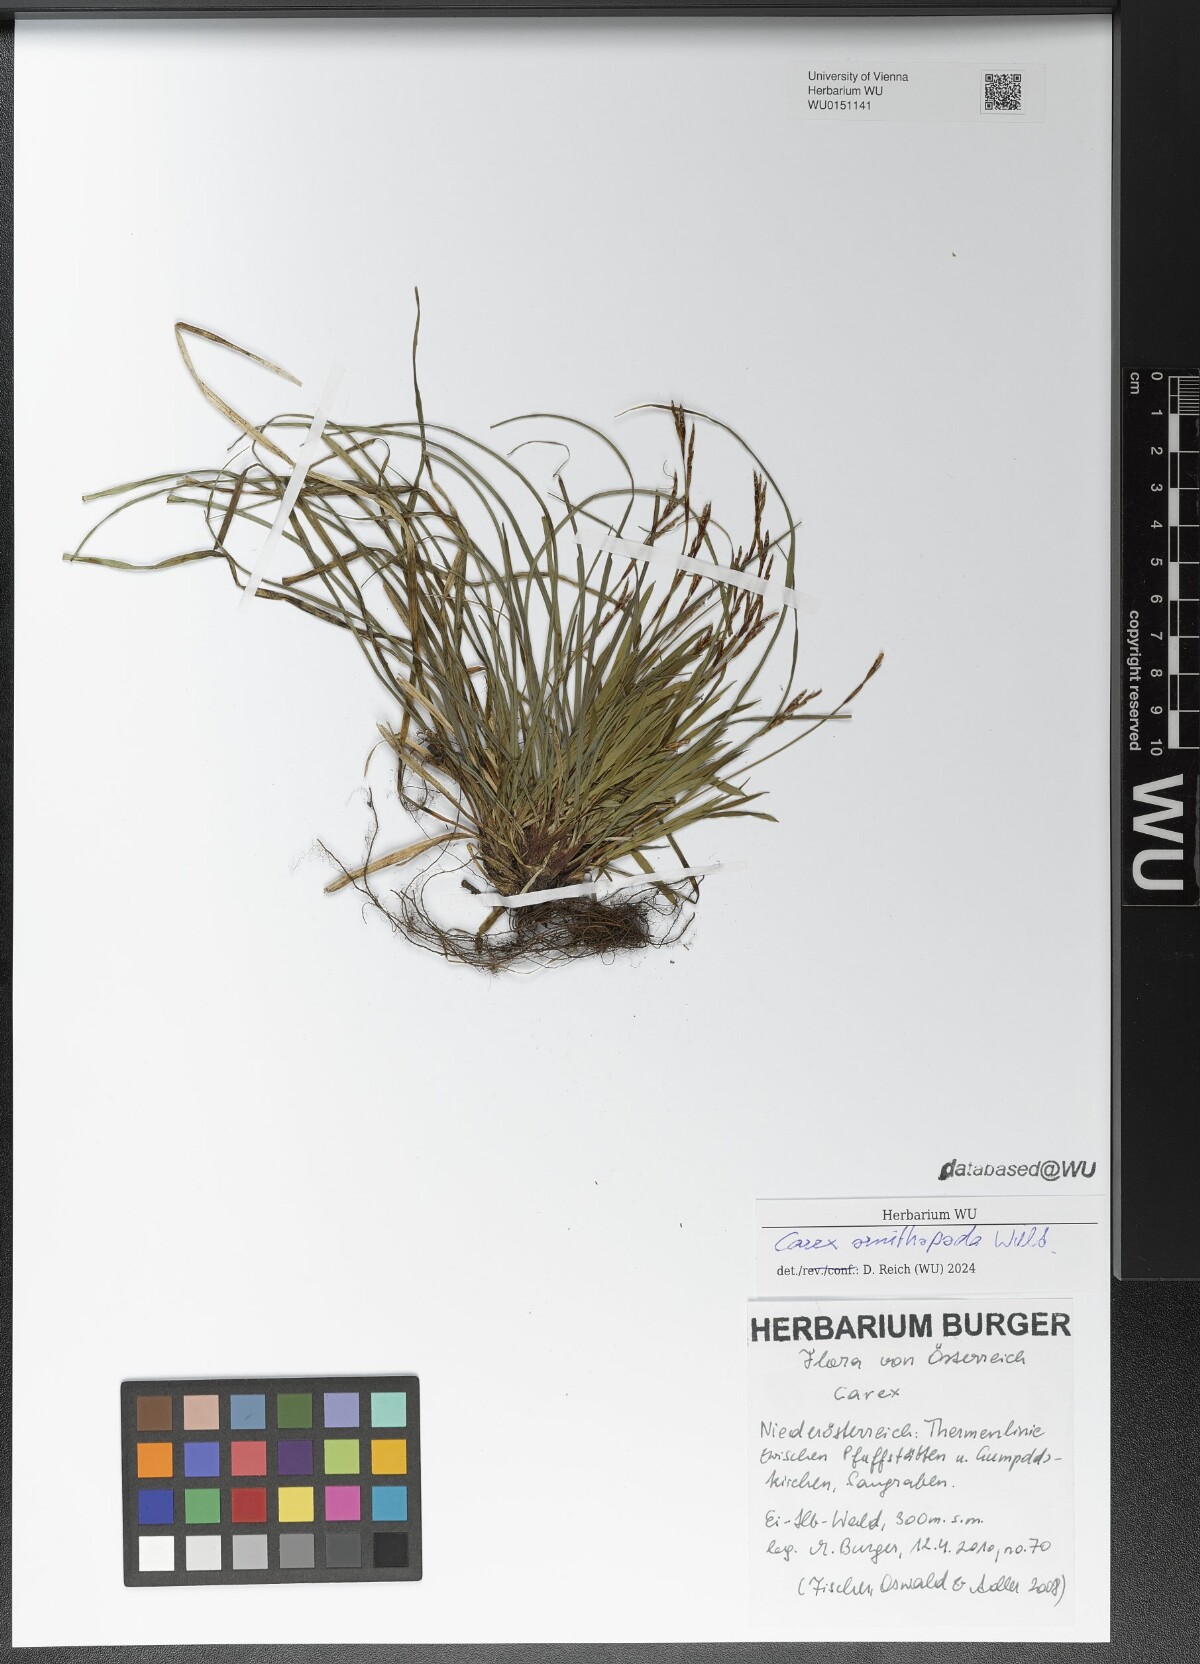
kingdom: Plantae
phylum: Tracheophyta
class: Liliopsida
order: Poales
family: Cyperaceae
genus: Carex
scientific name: Carex ornithopoda
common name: Bird's-foot sedge
